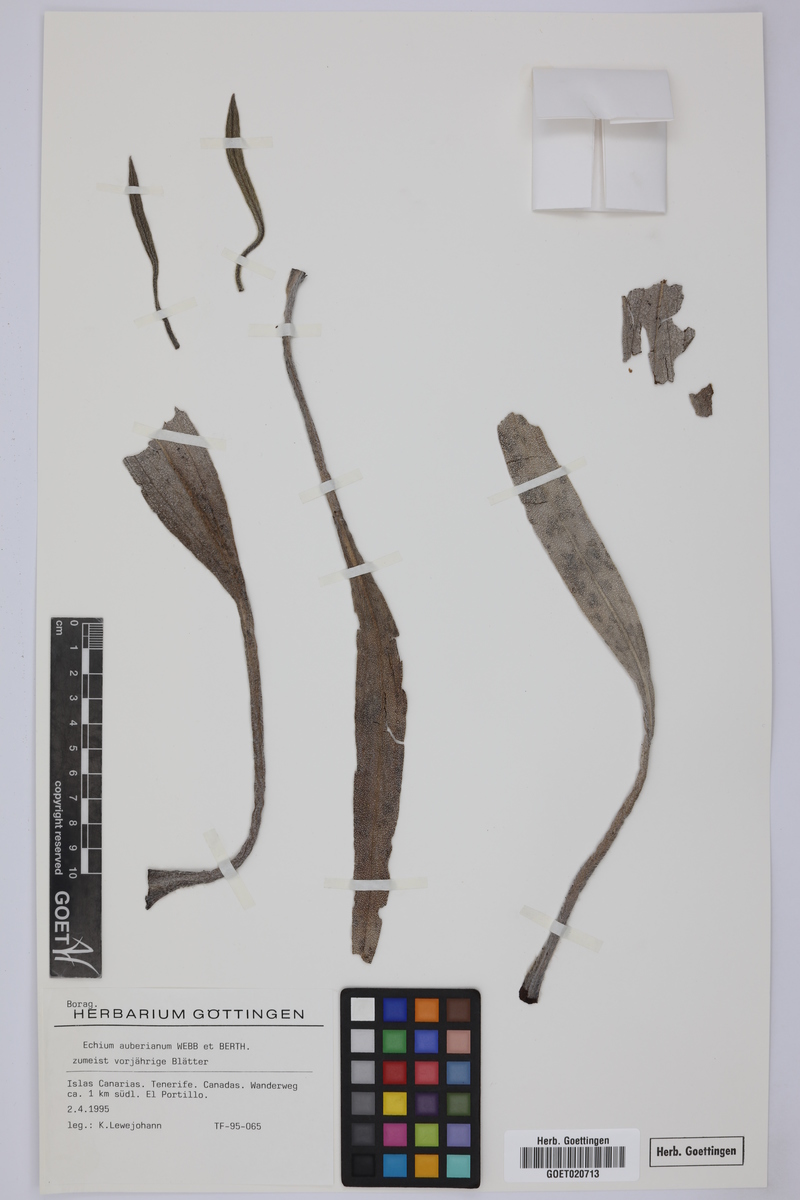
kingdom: Plantae
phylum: Tracheophyta
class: Magnoliopsida
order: Boraginales
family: Boraginaceae
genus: Echium
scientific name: Echium auberianum
